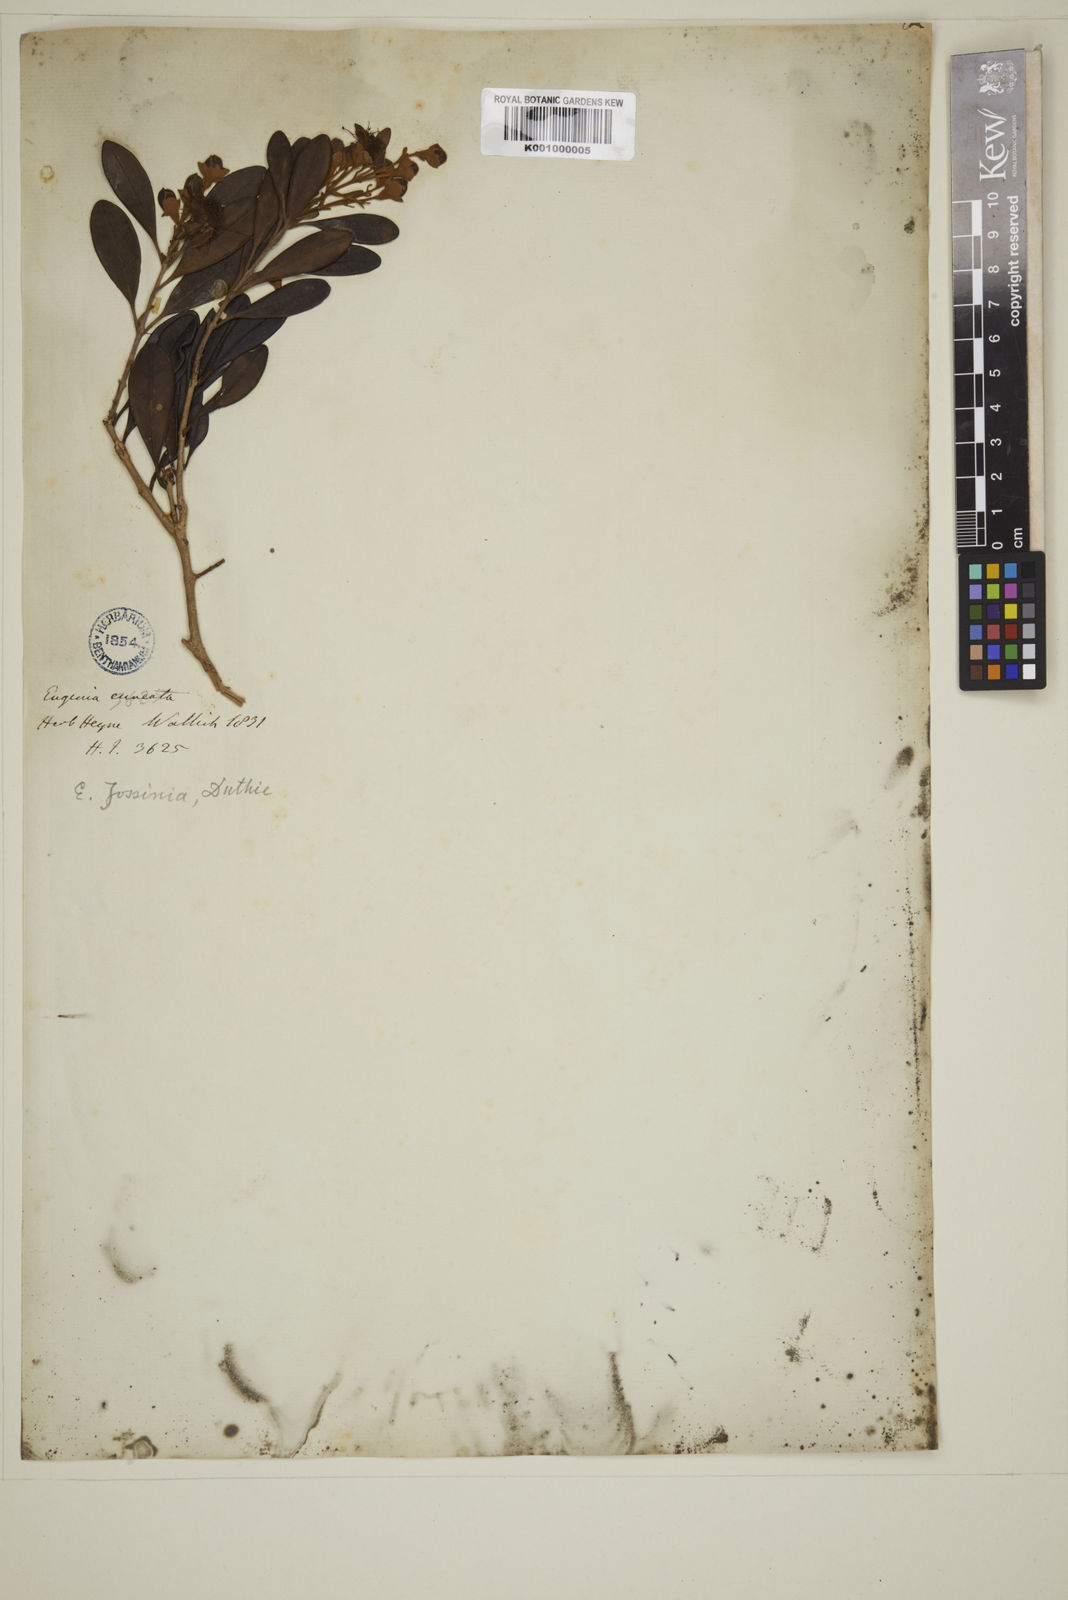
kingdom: Plantae
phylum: Tracheophyta
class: Magnoliopsida
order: Myrtales
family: Myrtaceae
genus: Eugenia
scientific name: Eugenia indica
